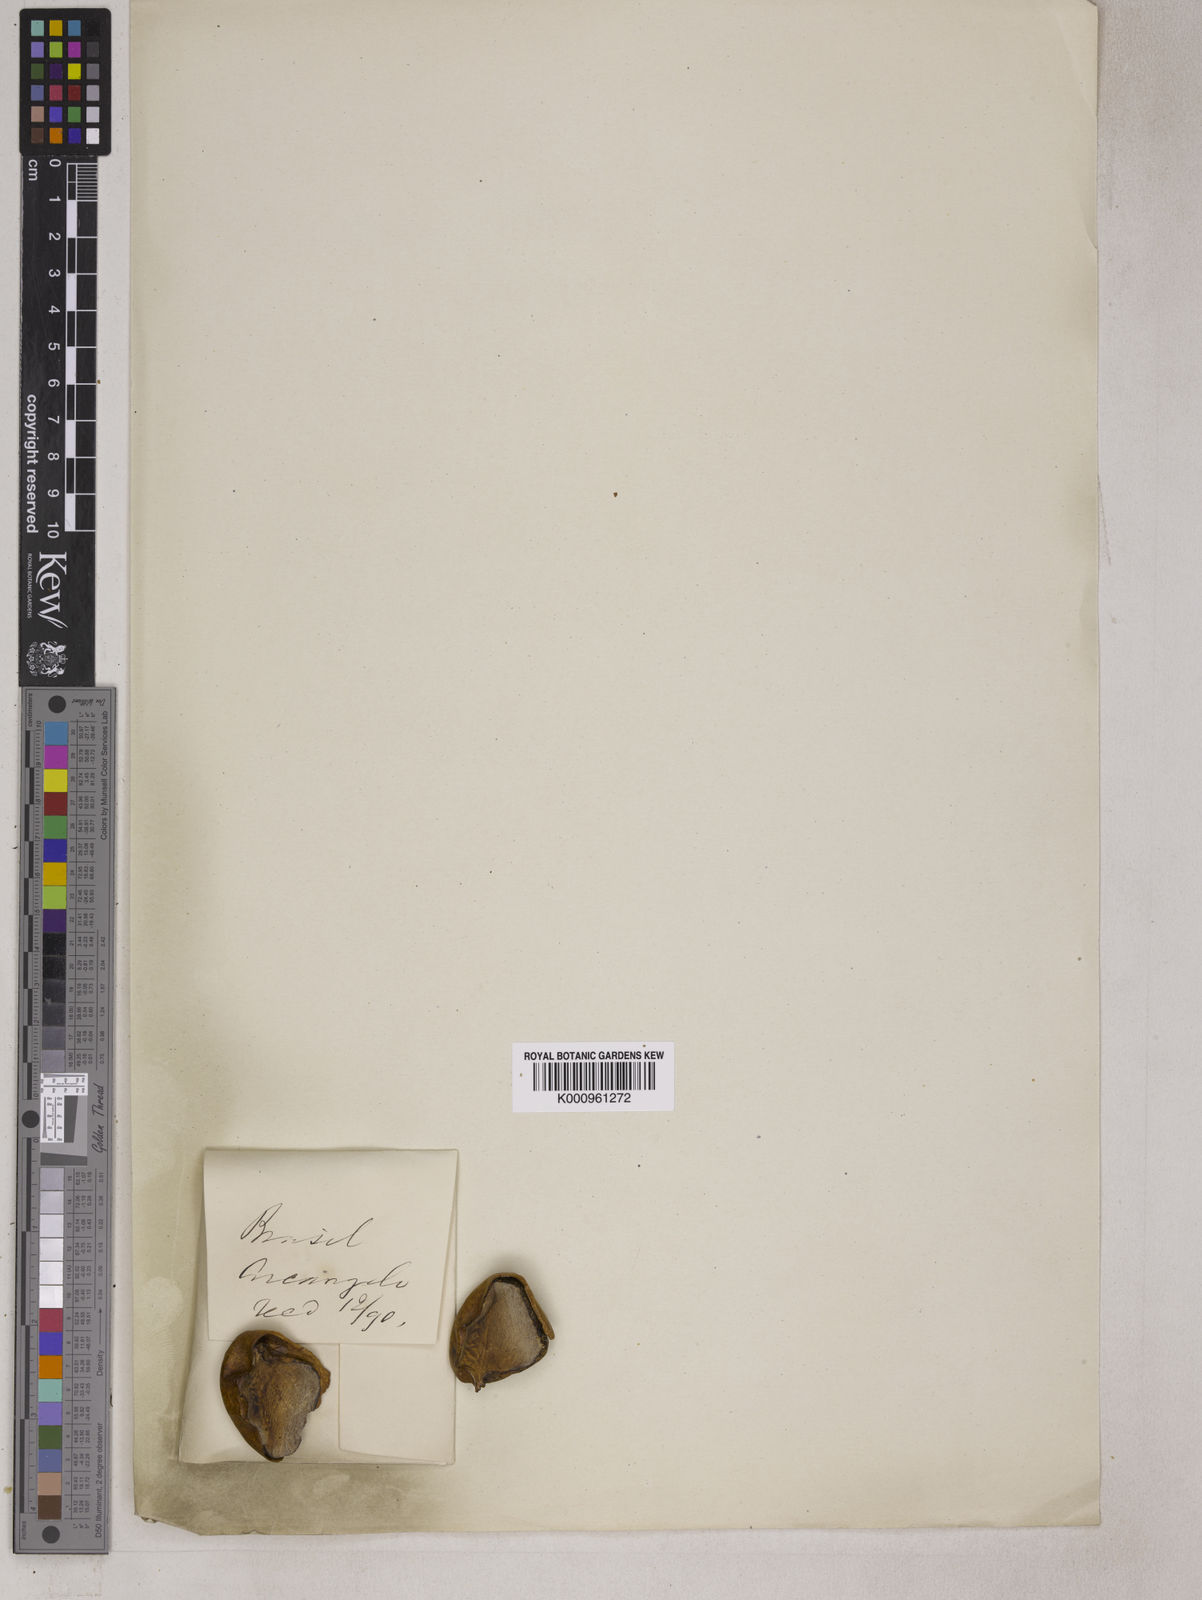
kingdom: Plantae
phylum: Tracheophyta
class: Cycadopsida
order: Cycadales
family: Zamiaceae
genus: Zamia
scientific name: Zamia lecointei
